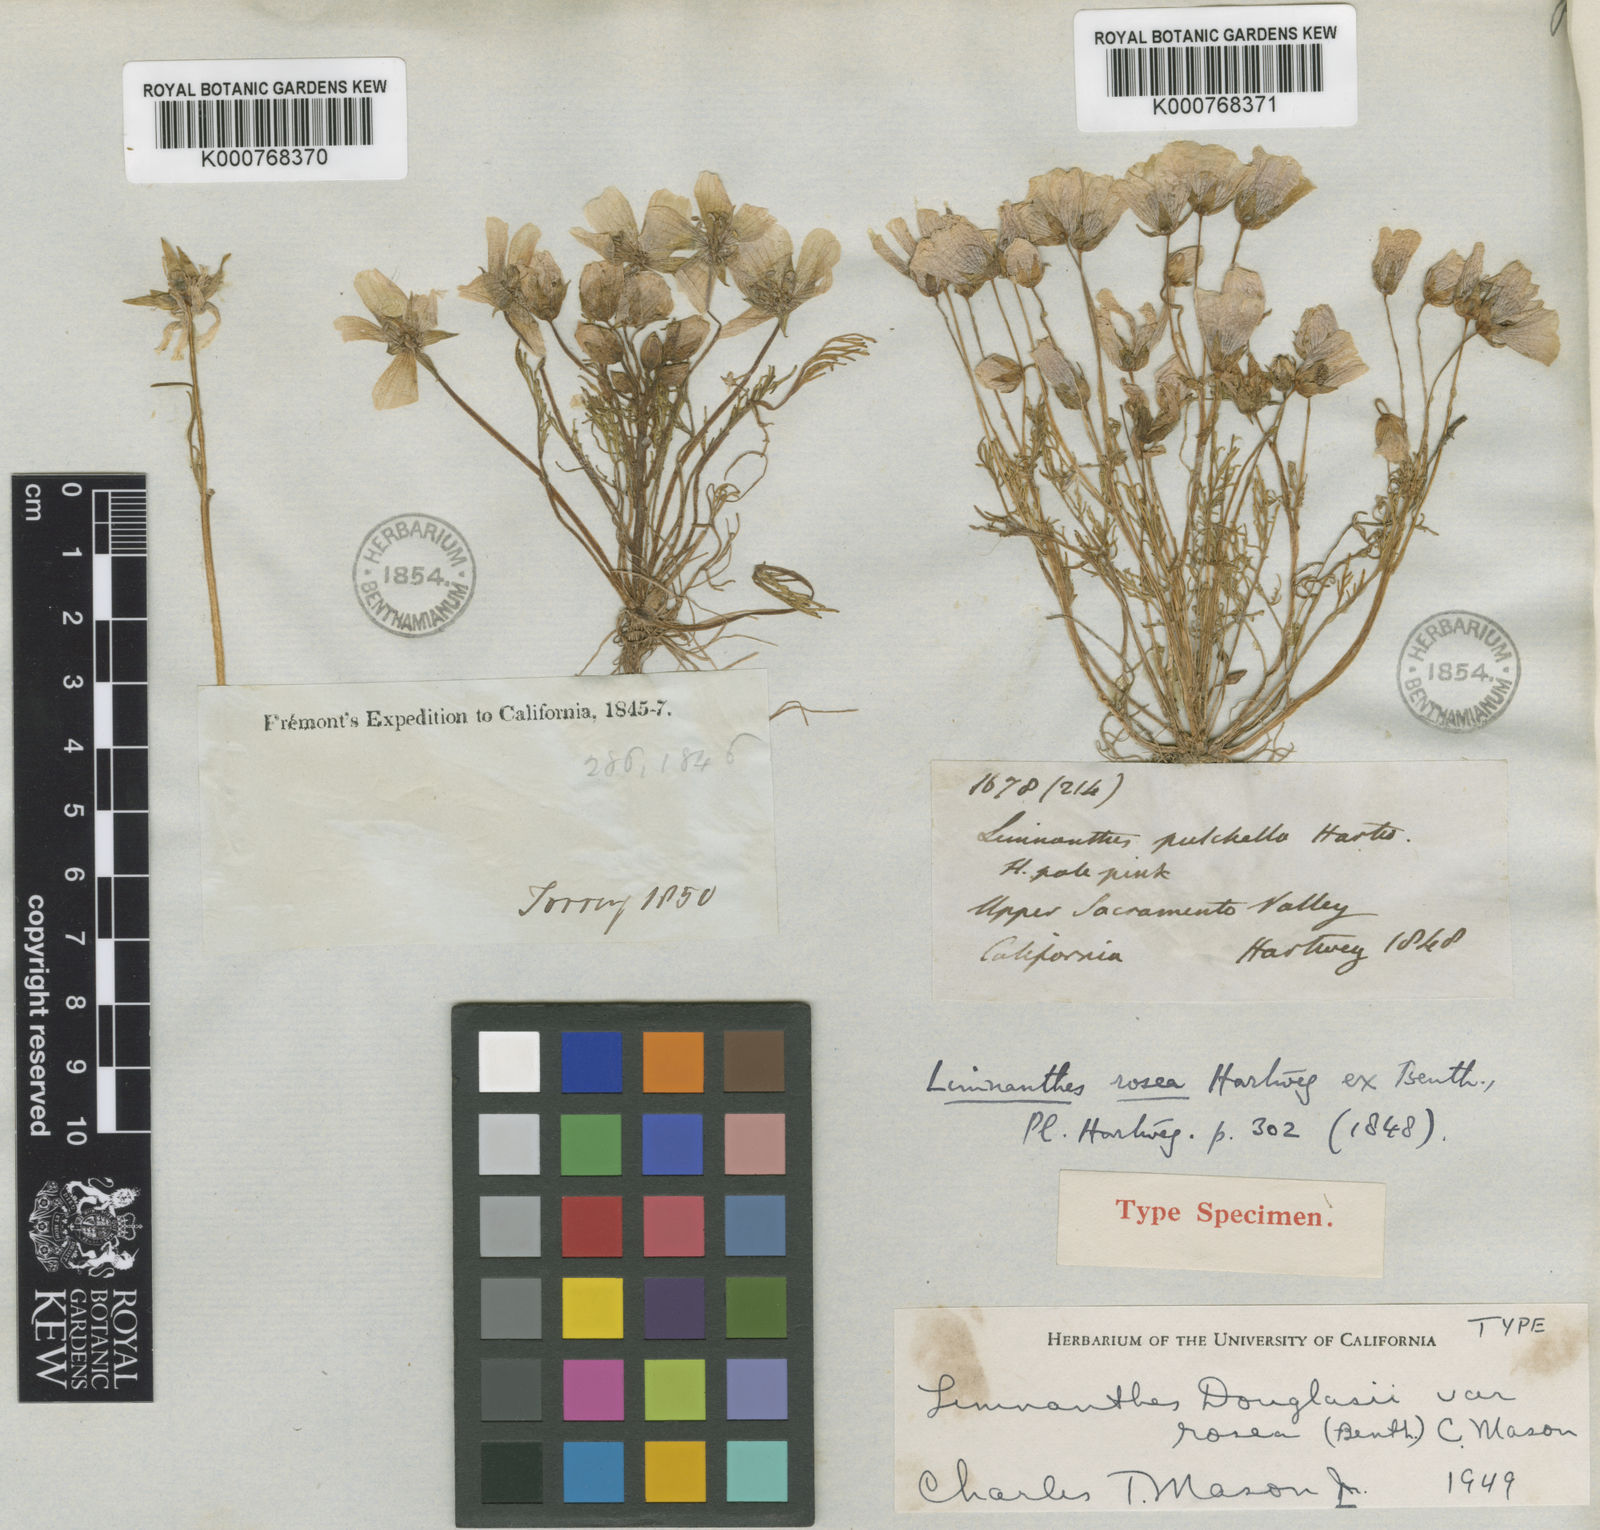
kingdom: Plantae
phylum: Tracheophyta
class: Magnoliopsida
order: Brassicales
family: Limnanthaceae
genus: Limnanthes
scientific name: Limnanthes douglasii
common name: Meadow-foam
